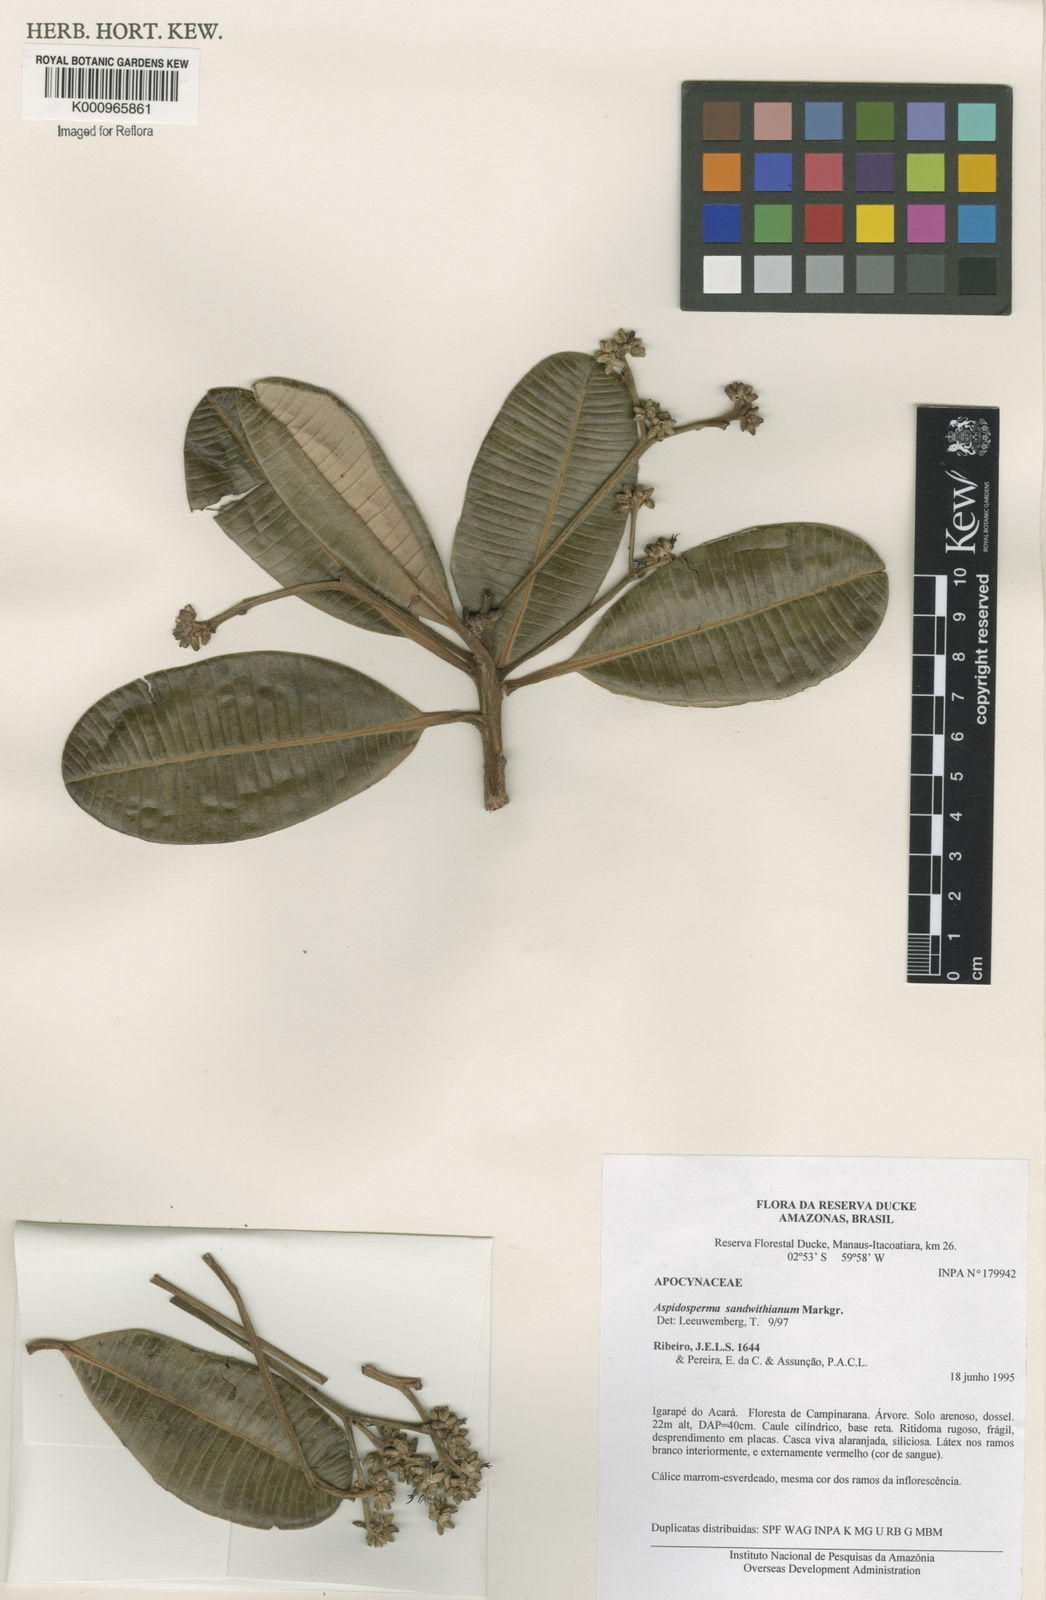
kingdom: Plantae
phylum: Tracheophyta
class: Magnoliopsida
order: Gentianales
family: Apocynaceae
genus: Aspidosperma
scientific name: Aspidosperma sandwithianum
